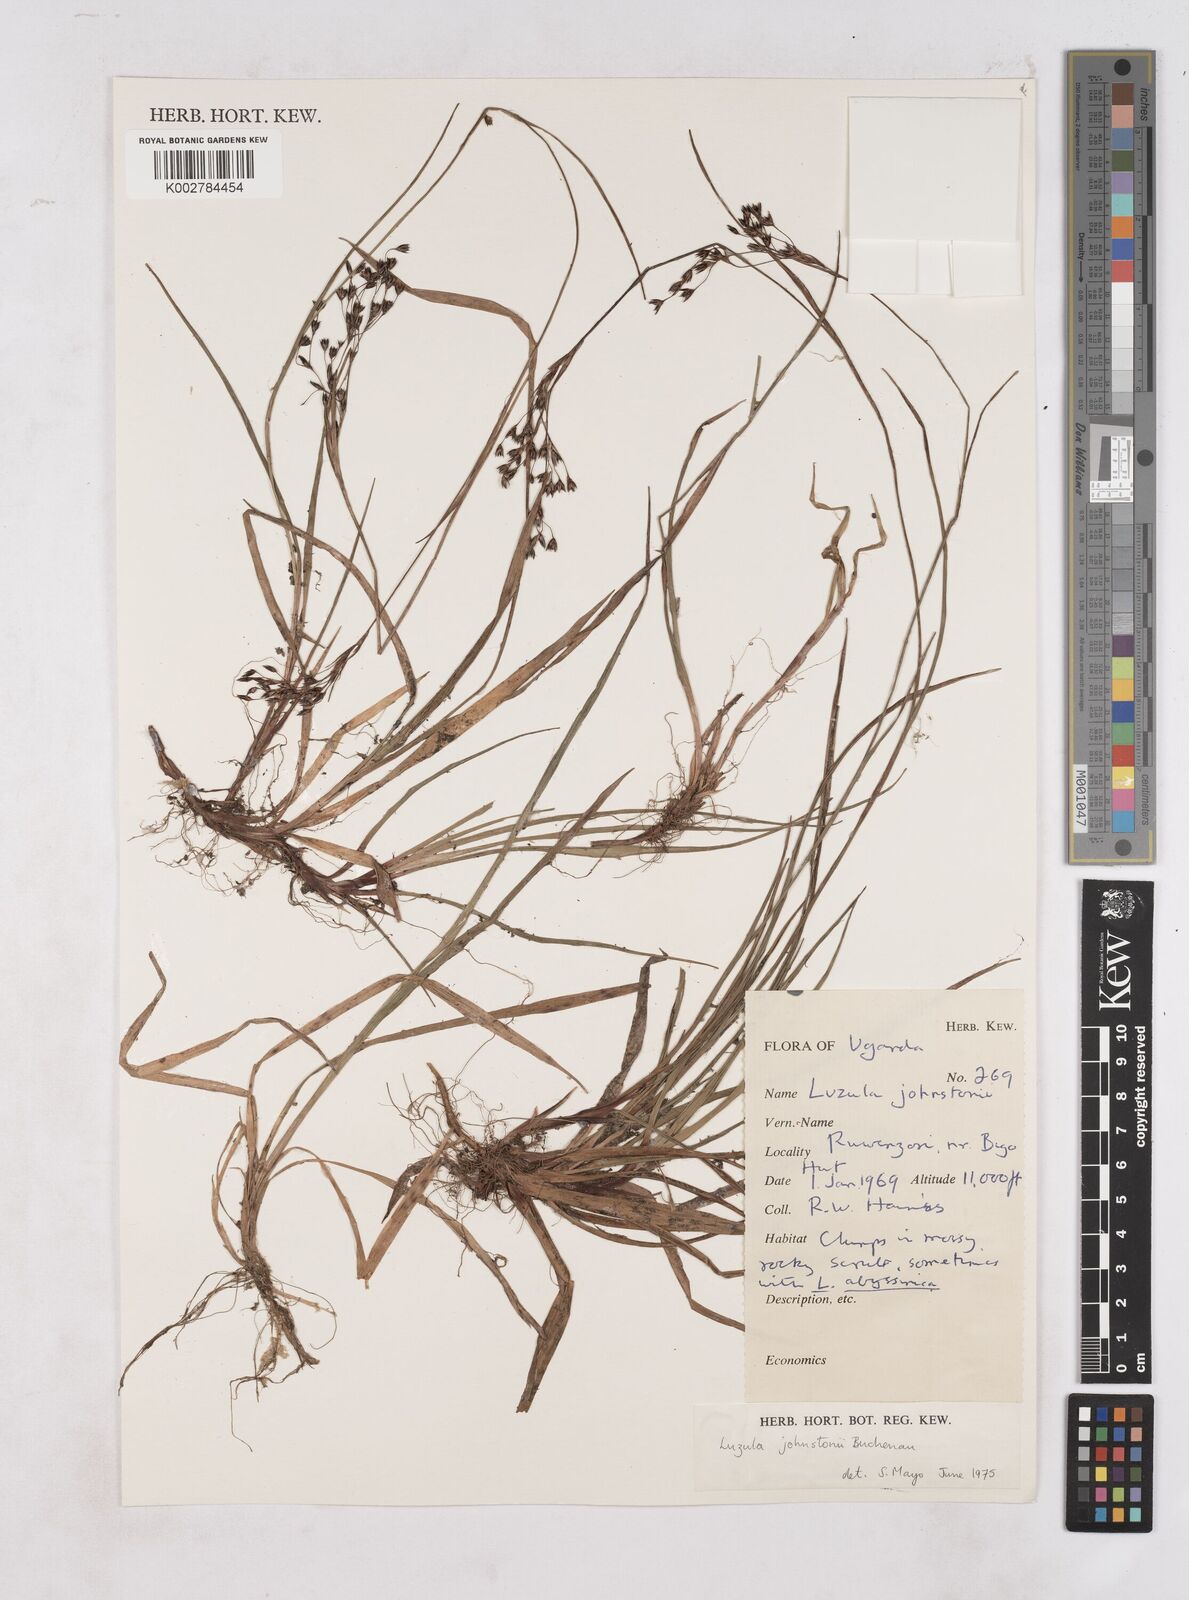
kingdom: Plantae
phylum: Tracheophyta
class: Liliopsida
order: Poales
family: Juncaceae
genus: Luzula
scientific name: Luzula johnstonii
